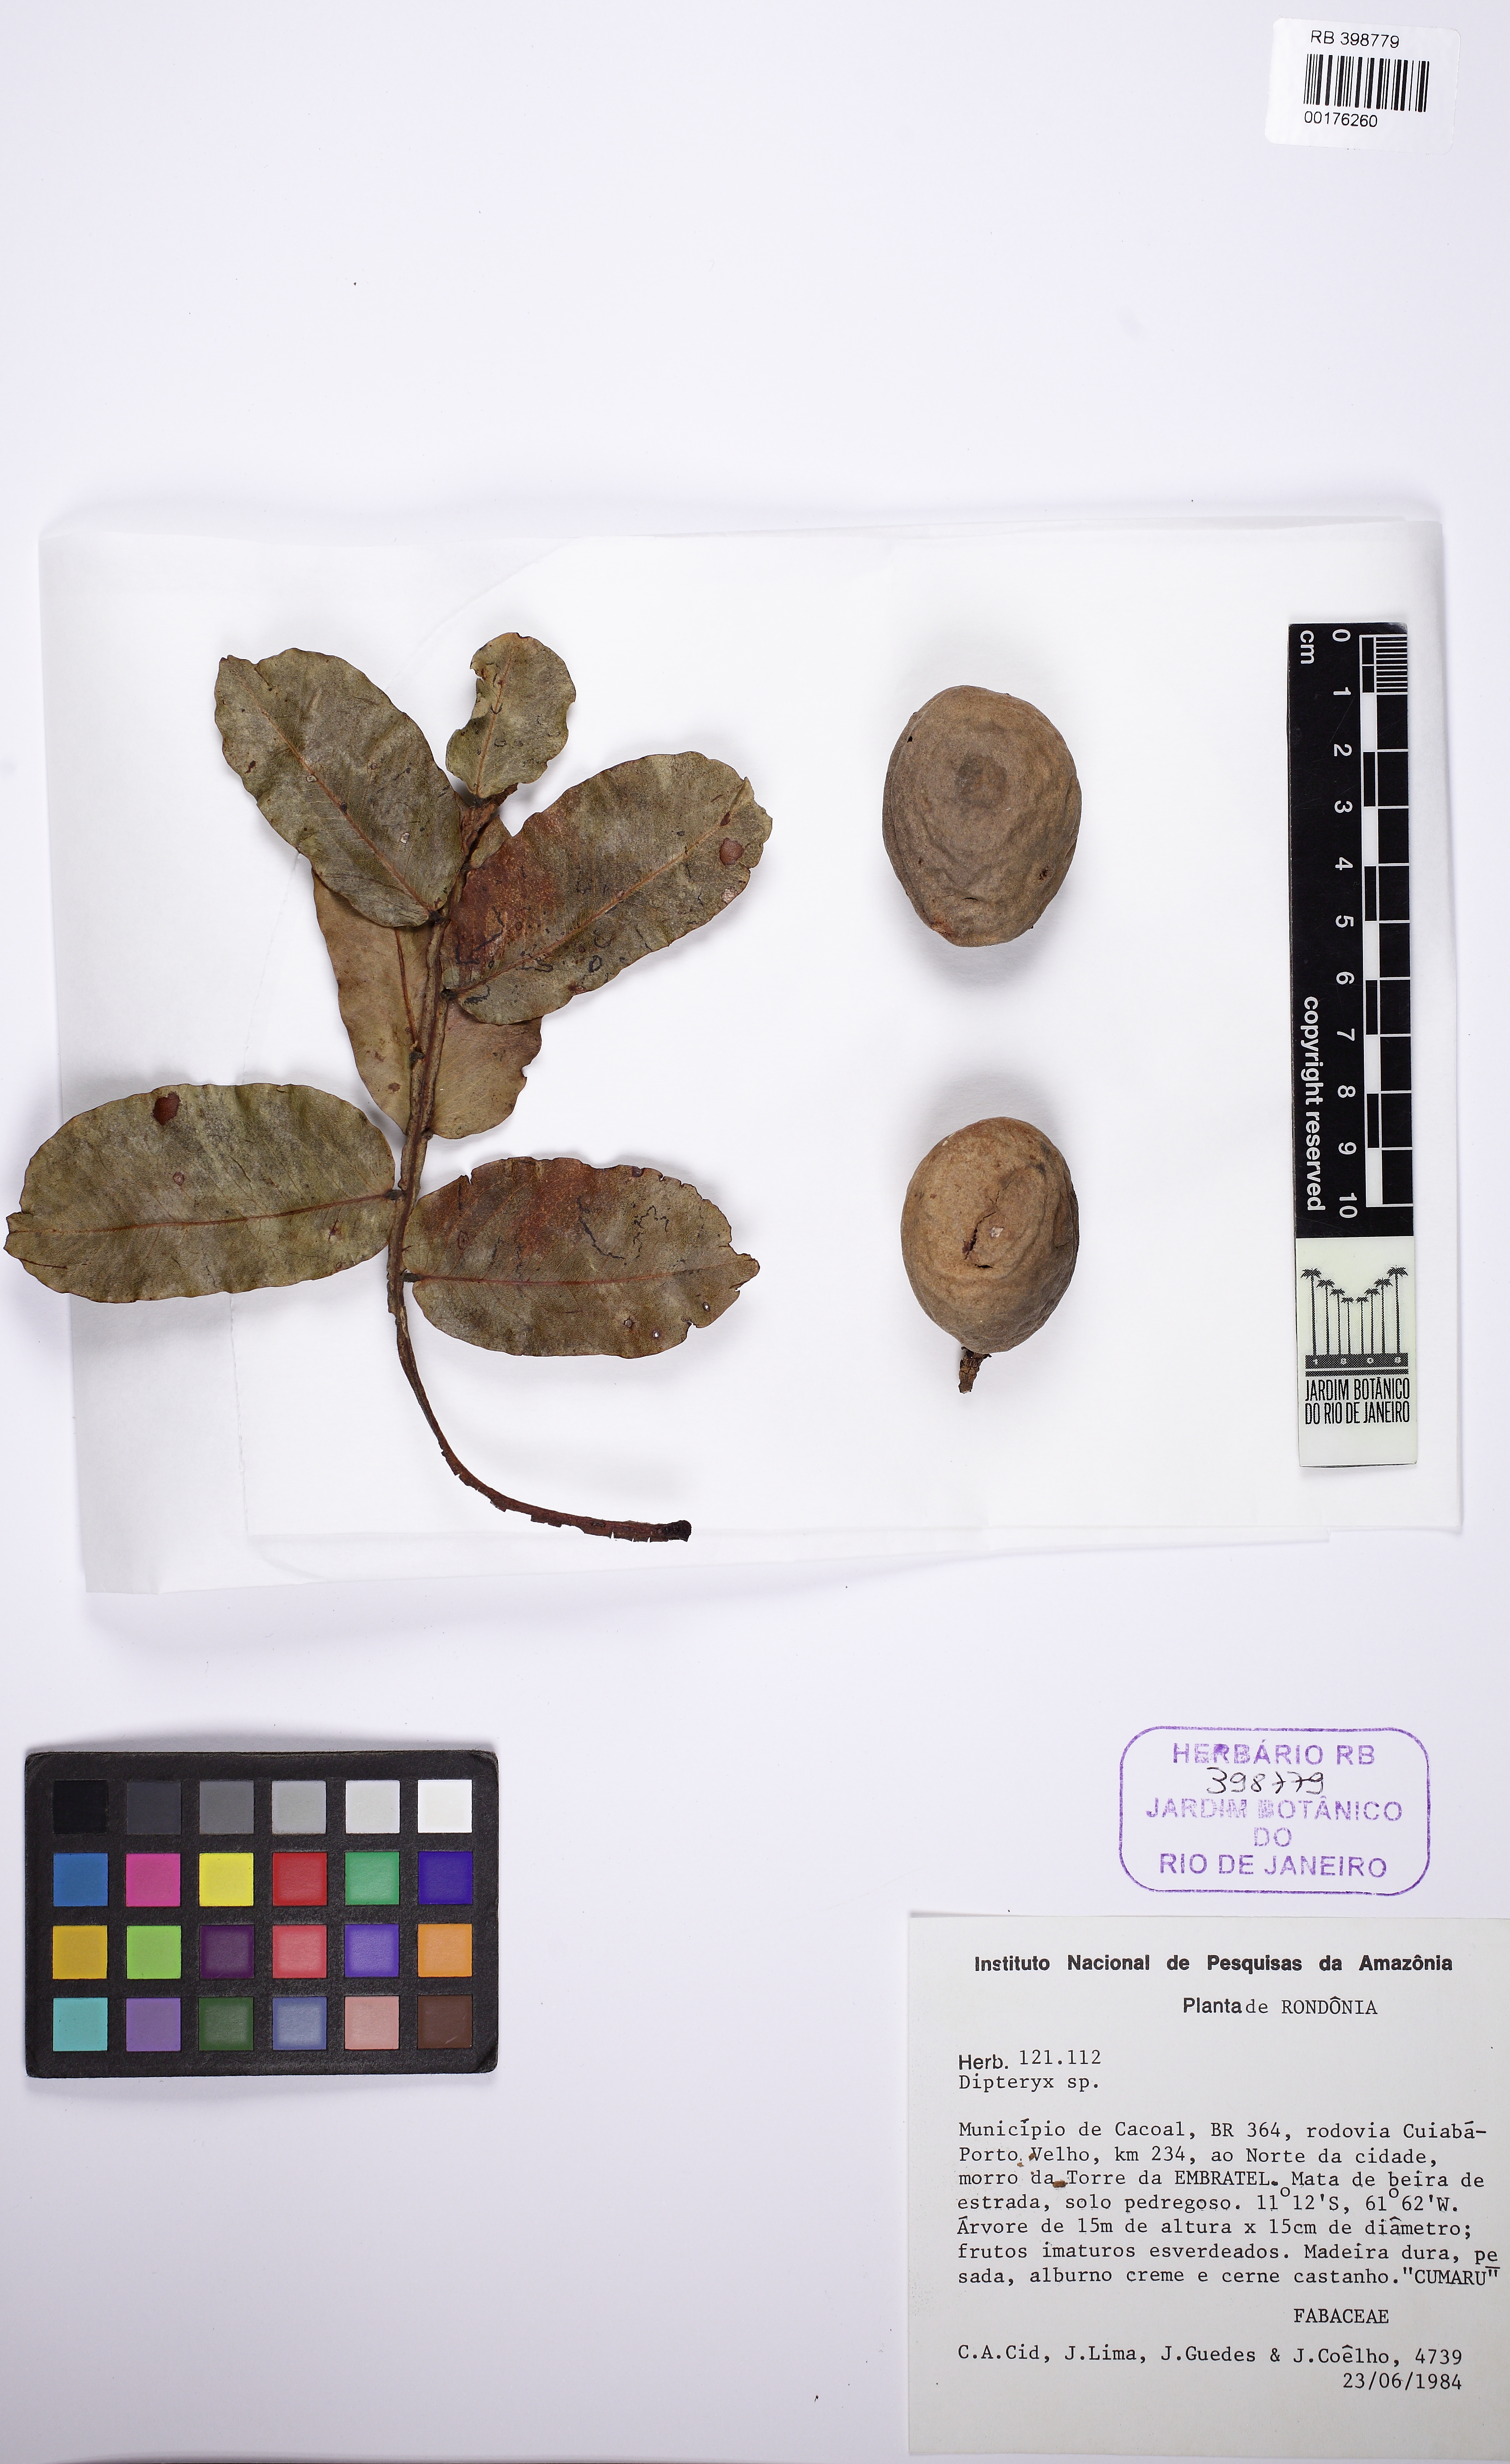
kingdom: Plantae
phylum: Tracheophyta
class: Magnoliopsida
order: Fabales
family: Fabaceae
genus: Dipteryx
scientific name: Dipteryx odorata
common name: Tonka
